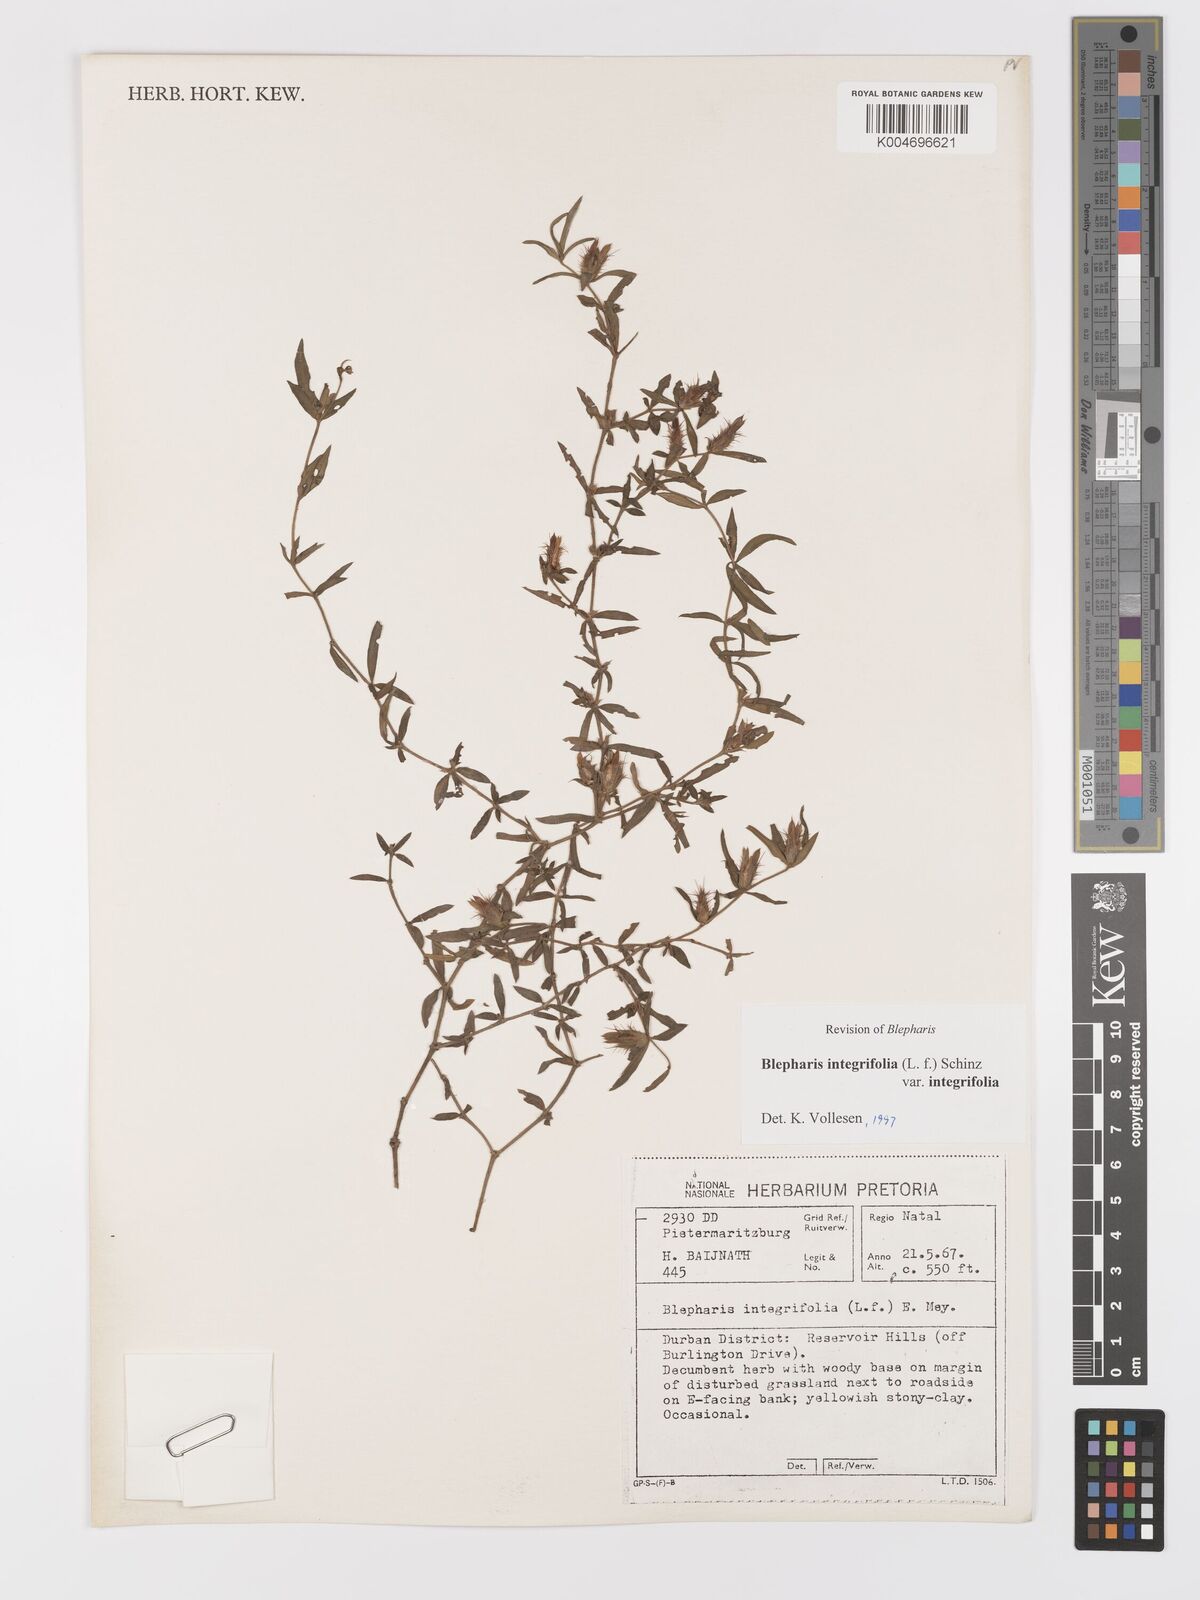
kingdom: Plantae
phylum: Tracheophyta
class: Magnoliopsida
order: Lamiales
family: Acanthaceae
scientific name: Acanthaceae
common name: Acanthaceae
